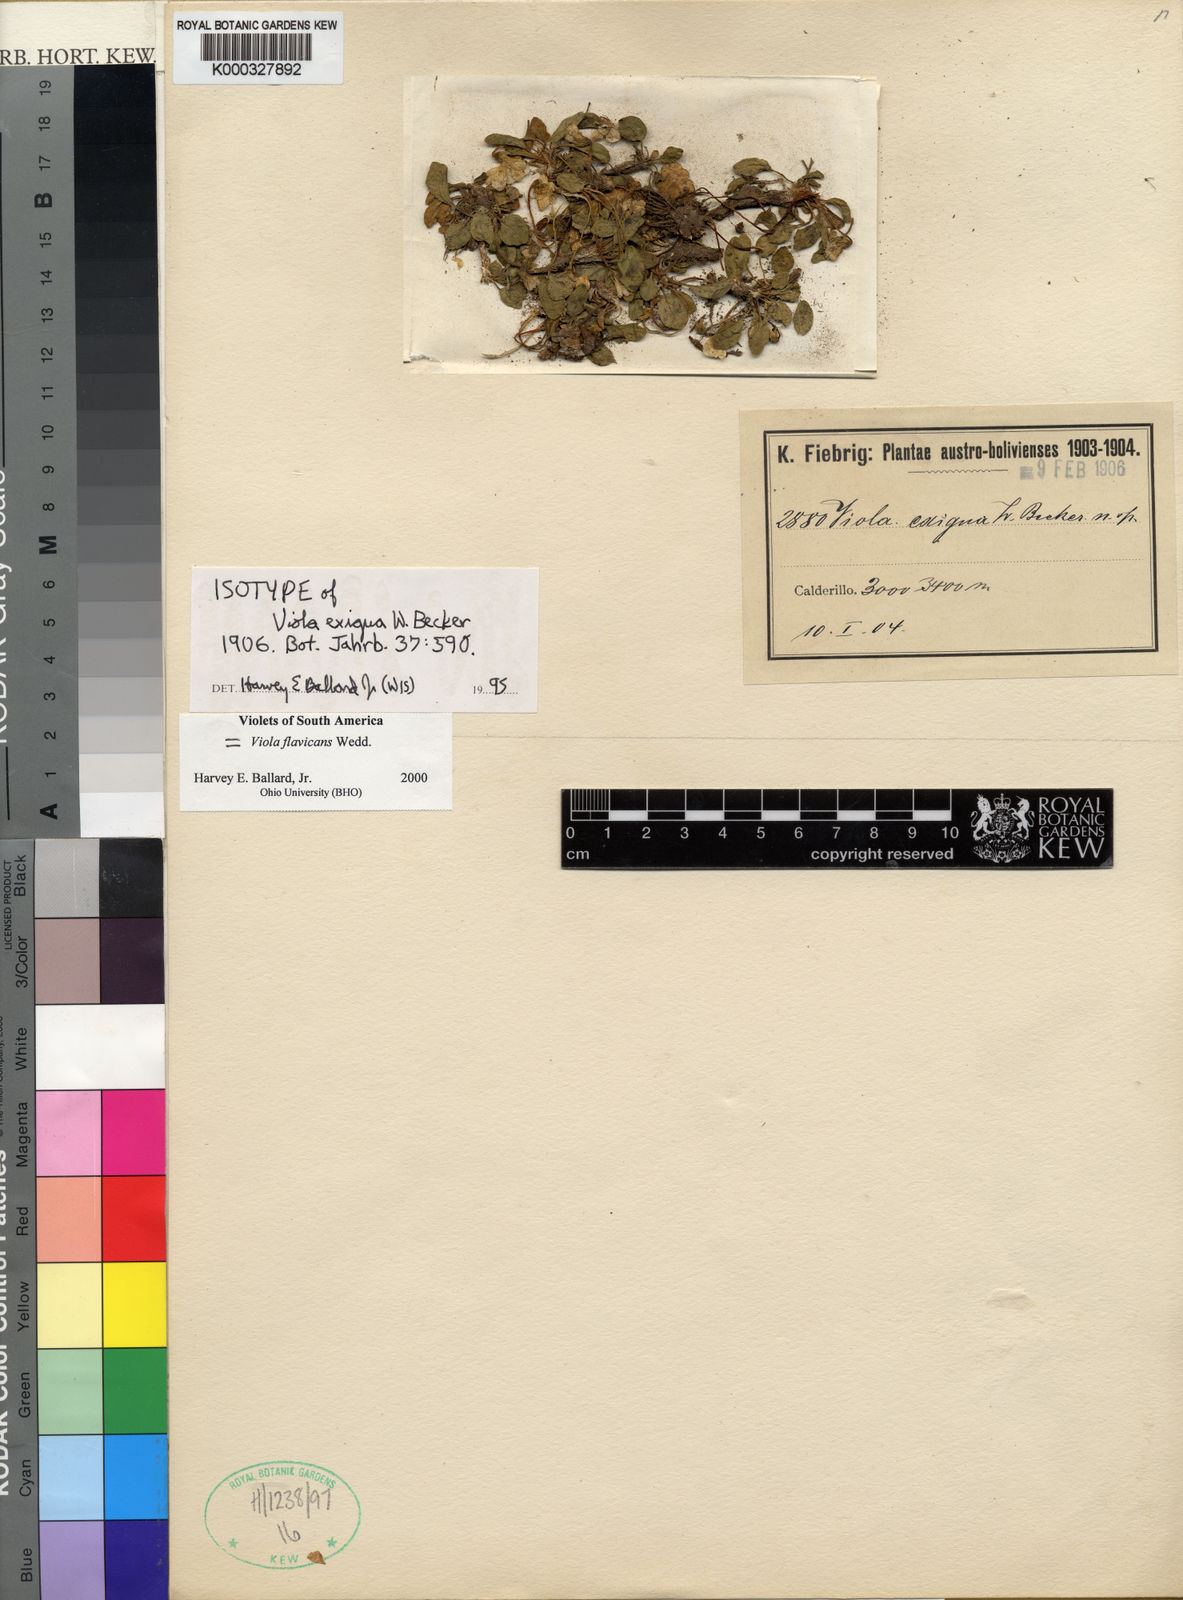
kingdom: Plantae
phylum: Tracheophyta
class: Magnoliopsida
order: Malpighiales
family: Violaceae
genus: Viola
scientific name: Viola flavicans
